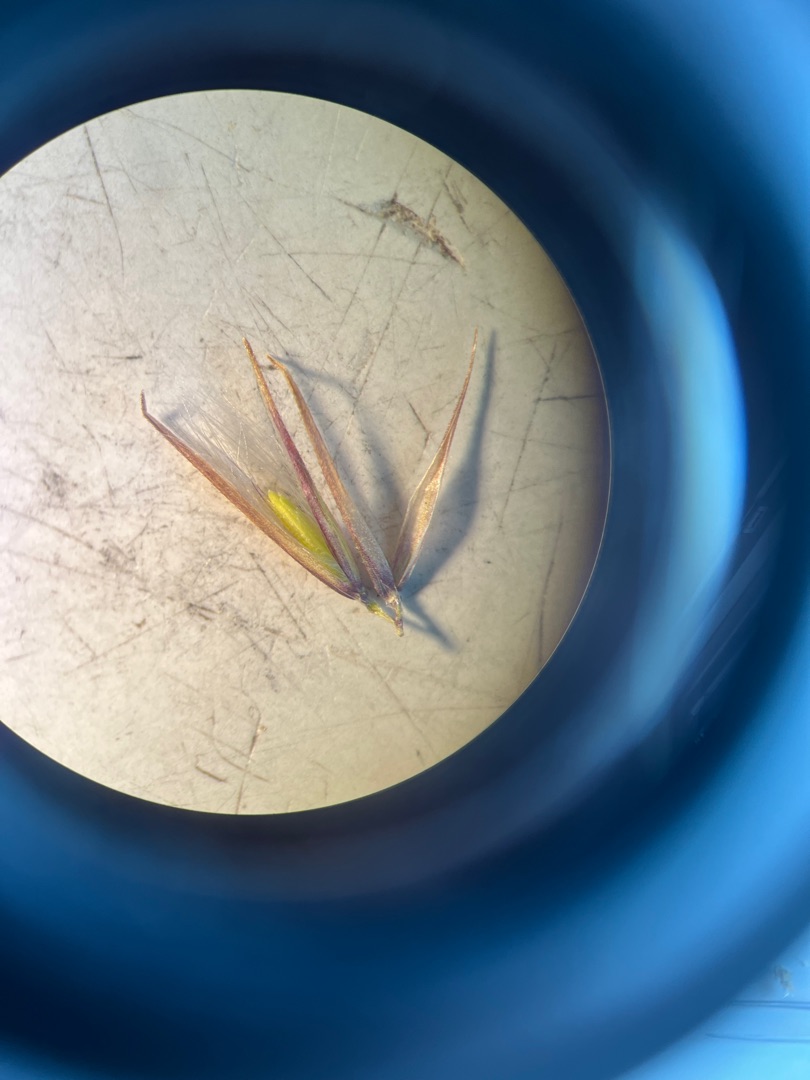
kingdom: Plantae
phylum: Tracheophyta
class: Liliopsida
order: Poales
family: Poaceae
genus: Calamagrostis
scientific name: Calamagrostis epigejos
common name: Bjerg-rørhvene
